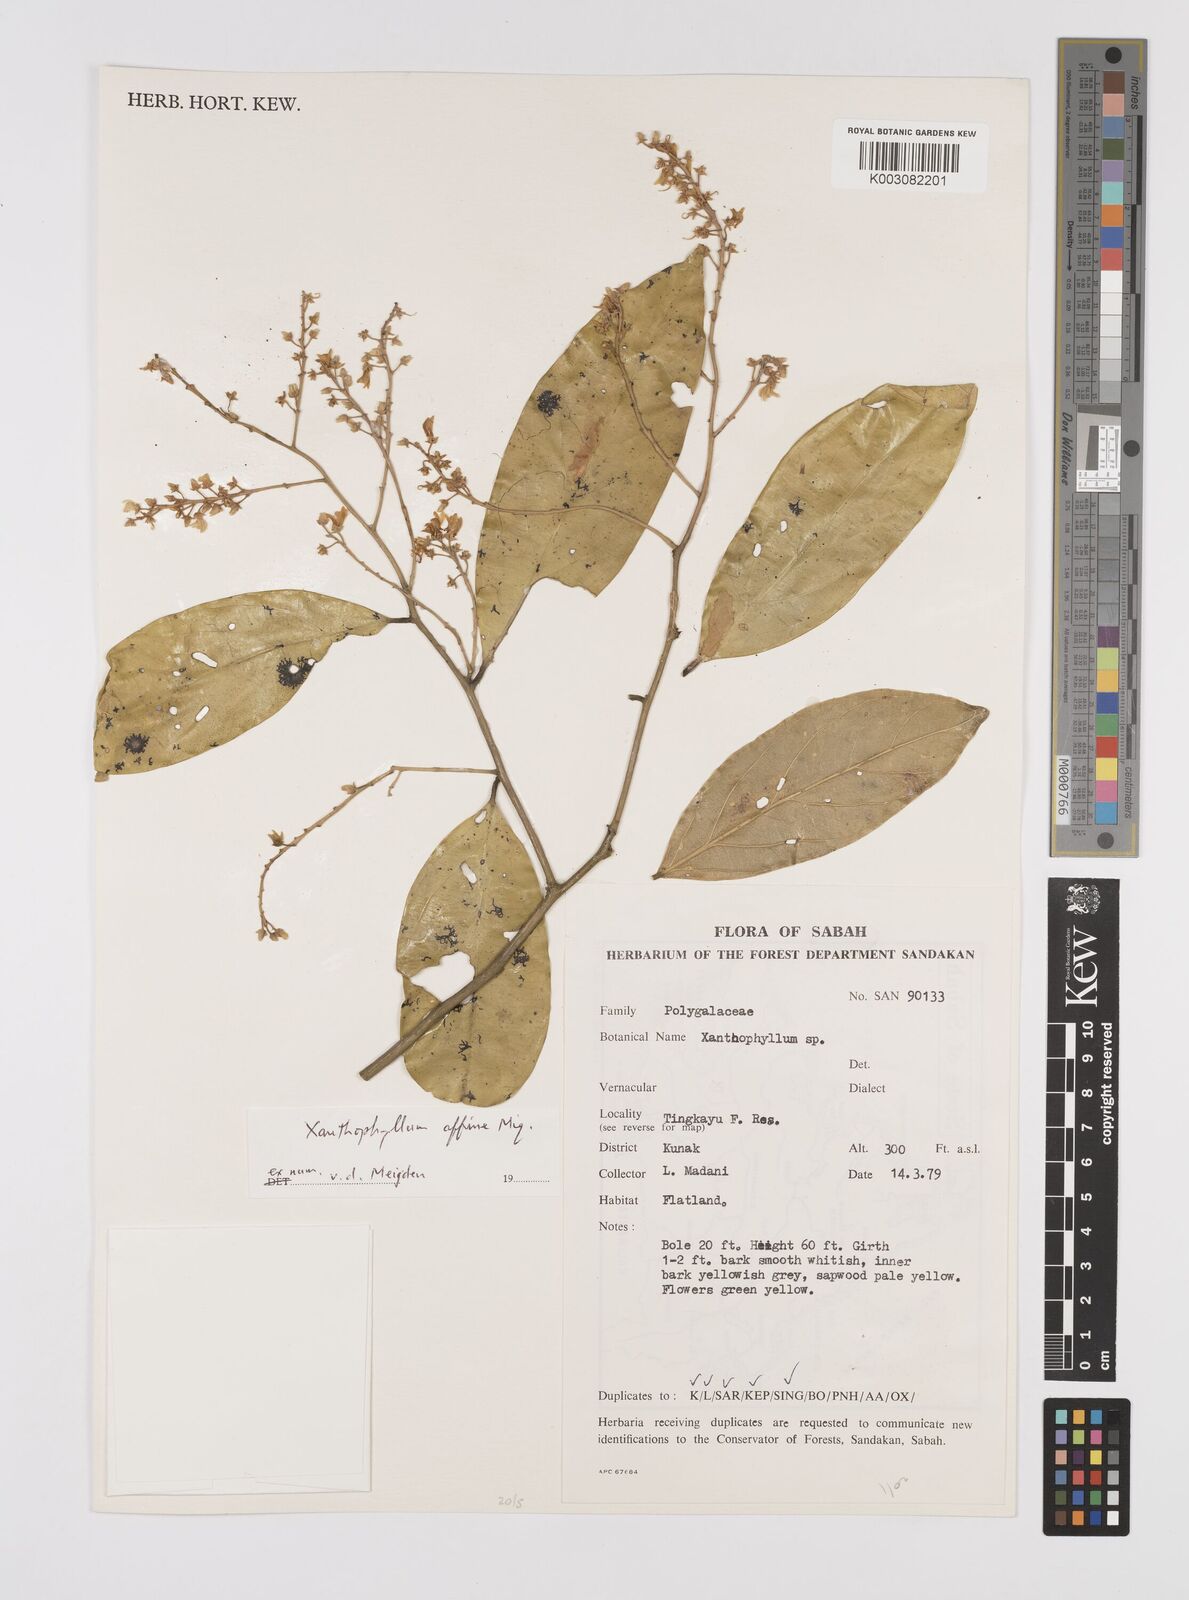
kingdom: Plantae
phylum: Tracheophyta
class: Magnoliopsida
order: Fabales
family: Polygalaceae
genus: Xanthophyllum
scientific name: Xanthophyllum flavescens
